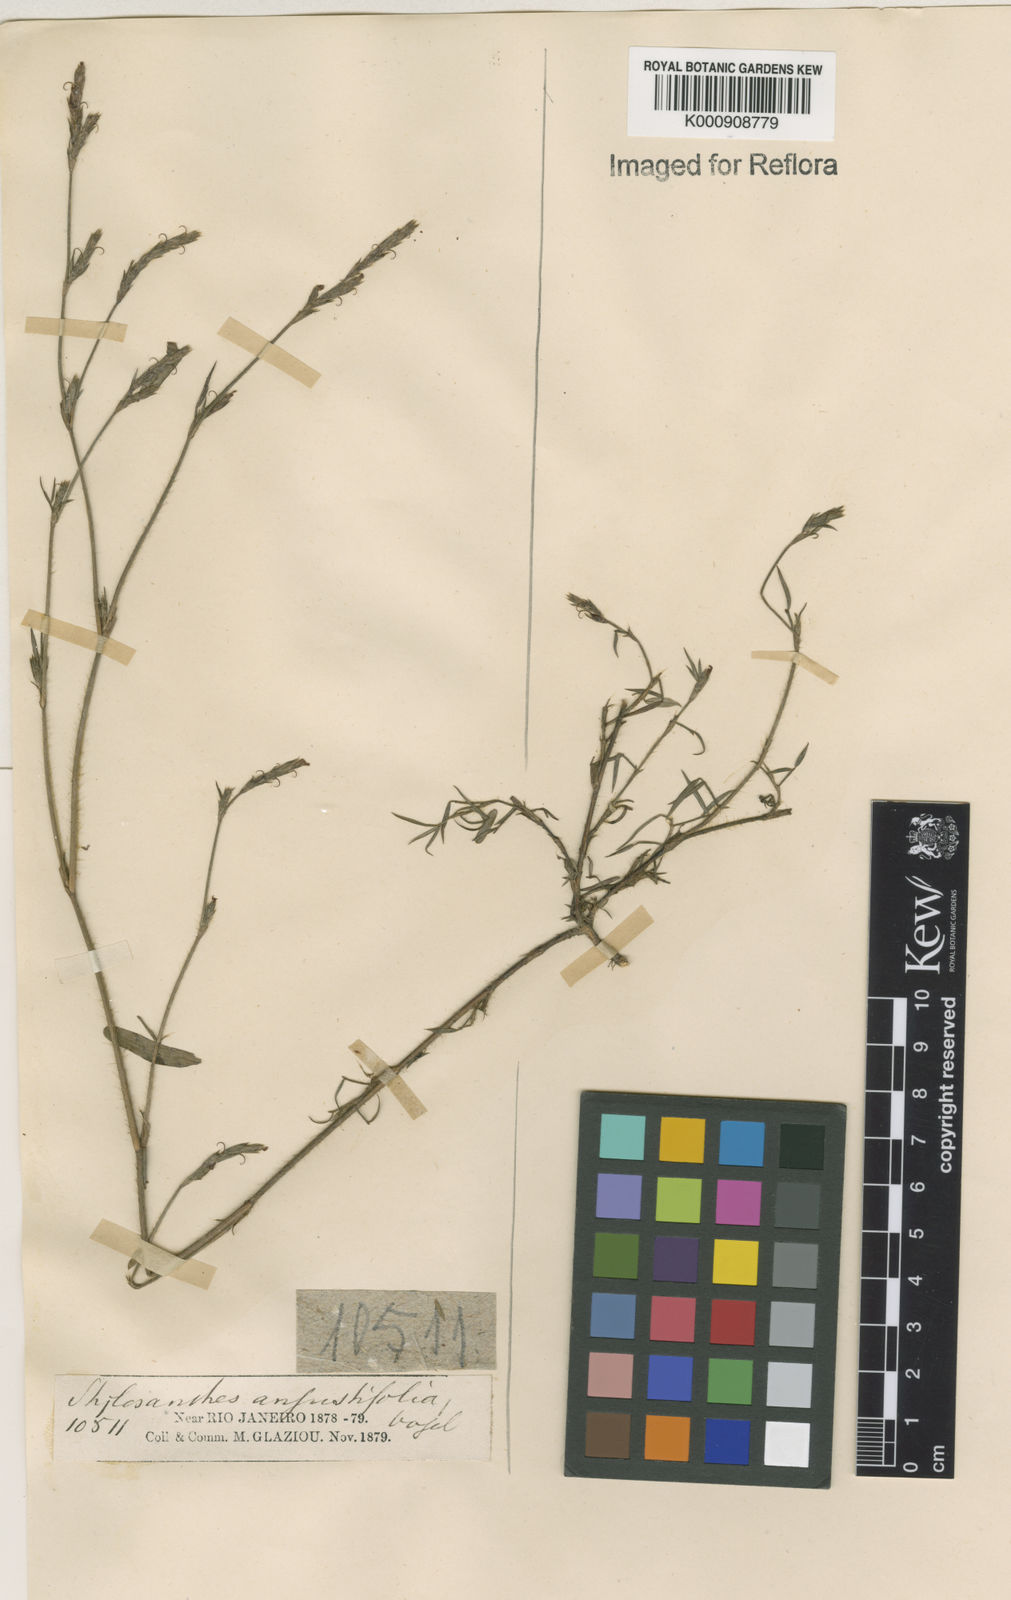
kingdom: Plantae
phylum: Tracheophyta
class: Magnoliopsida
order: Fabales
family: Fabaceae
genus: Stylosanthes
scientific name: Stylosanthes angustifolia
